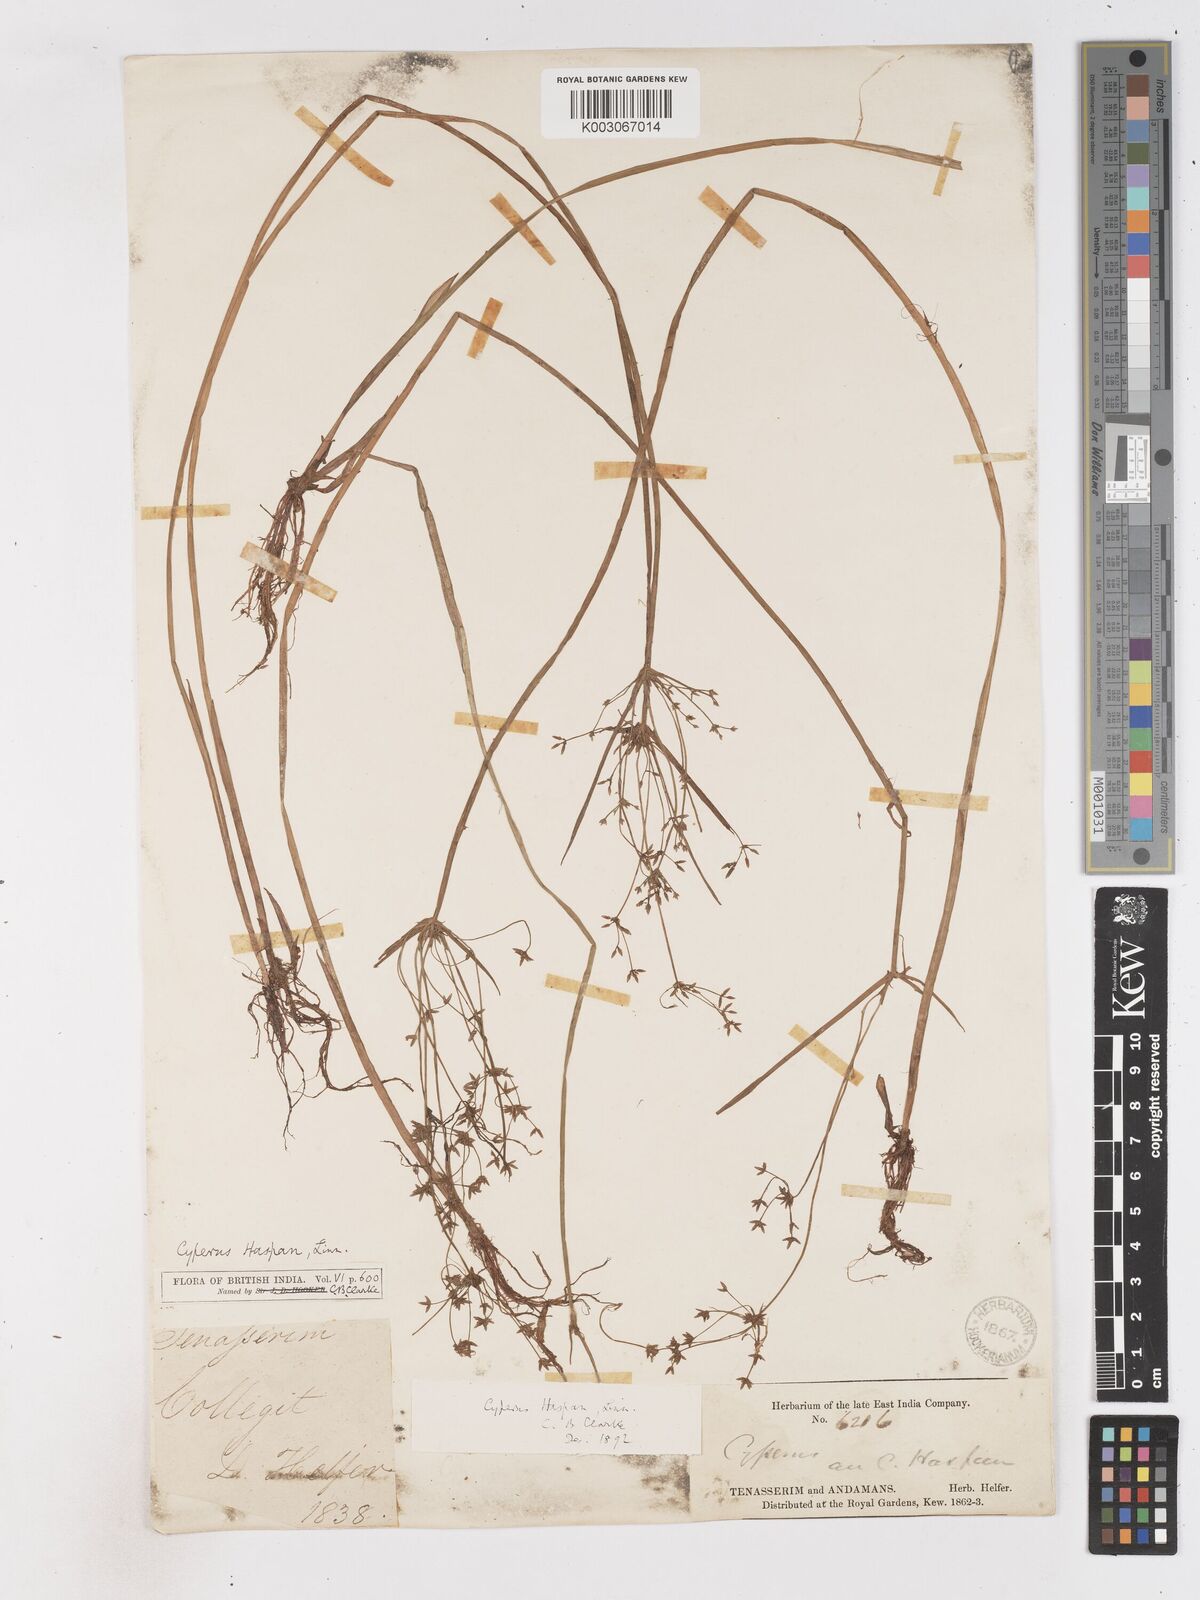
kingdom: Plantae
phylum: Tracheophyta
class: Liliopsida
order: Poales
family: Cyperaceae
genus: Cyperus
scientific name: Cyperus haspan
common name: Haspan flatsedge
